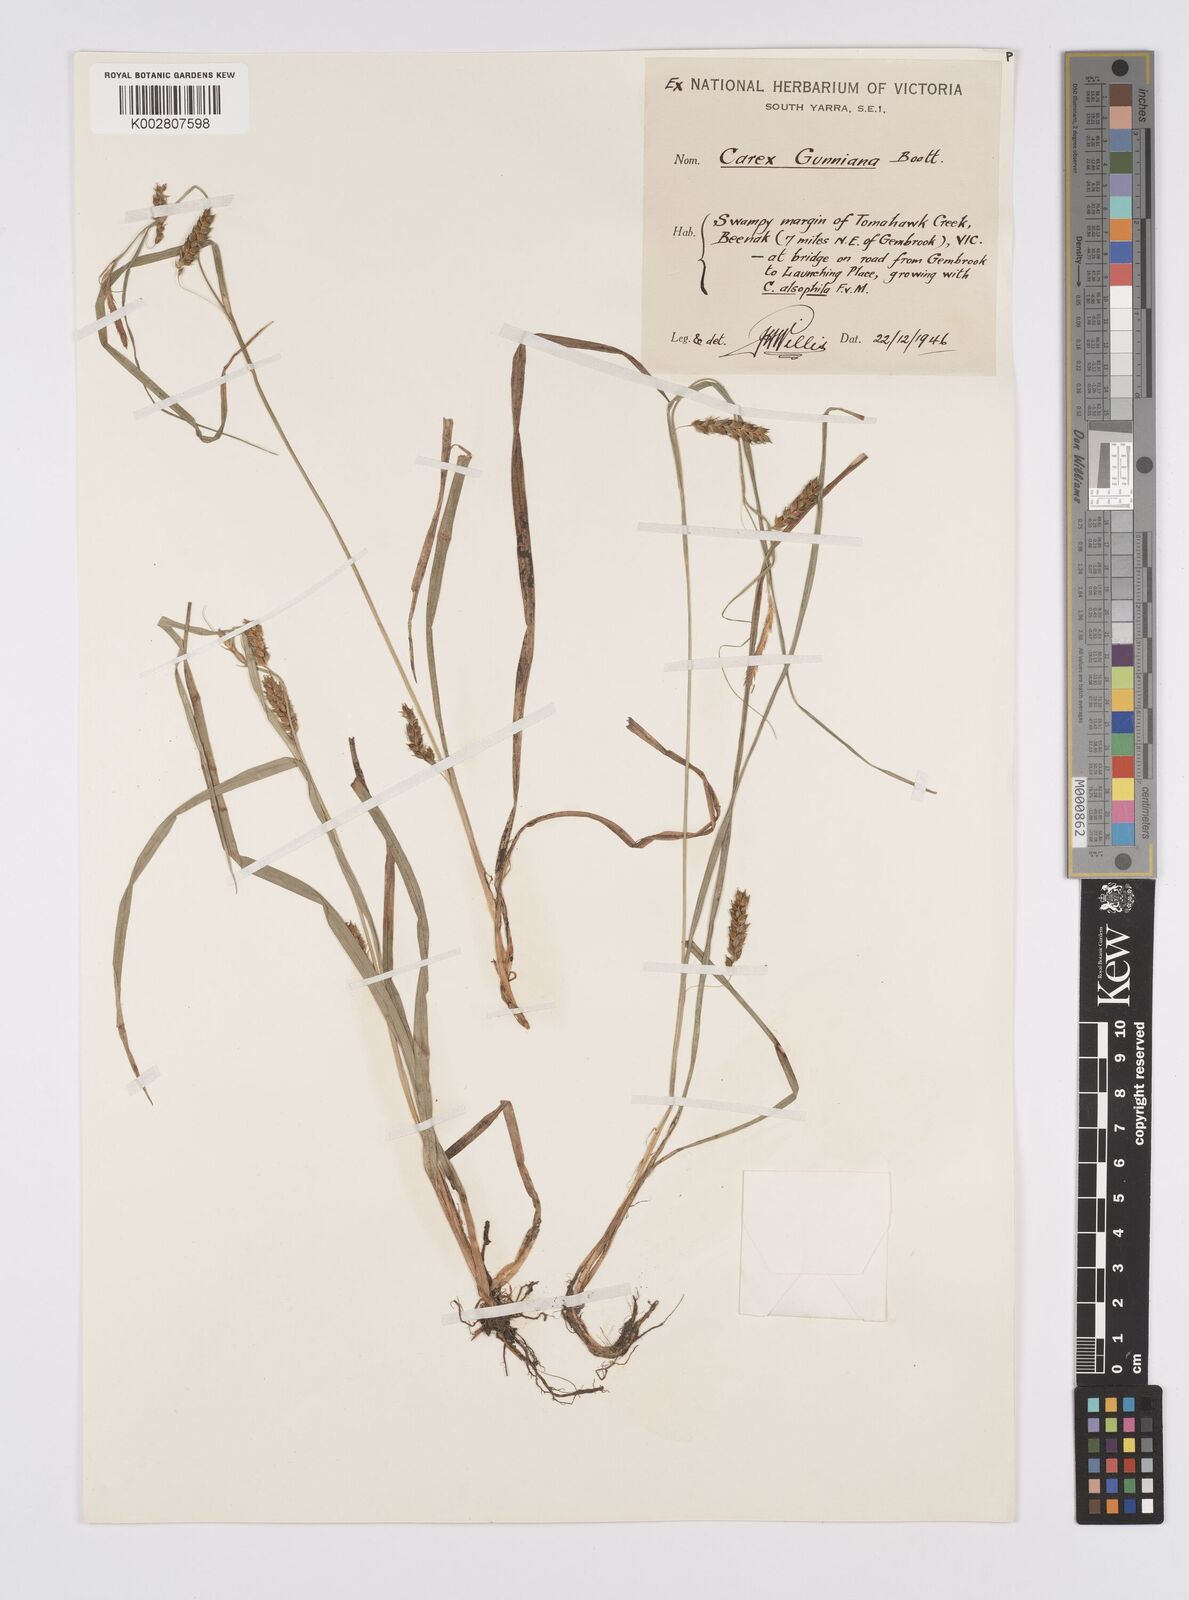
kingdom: Plantae
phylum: Tracheophyta
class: Liliopsida
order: Poales
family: Cyperaceae
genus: Carex
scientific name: Carex gunniana
